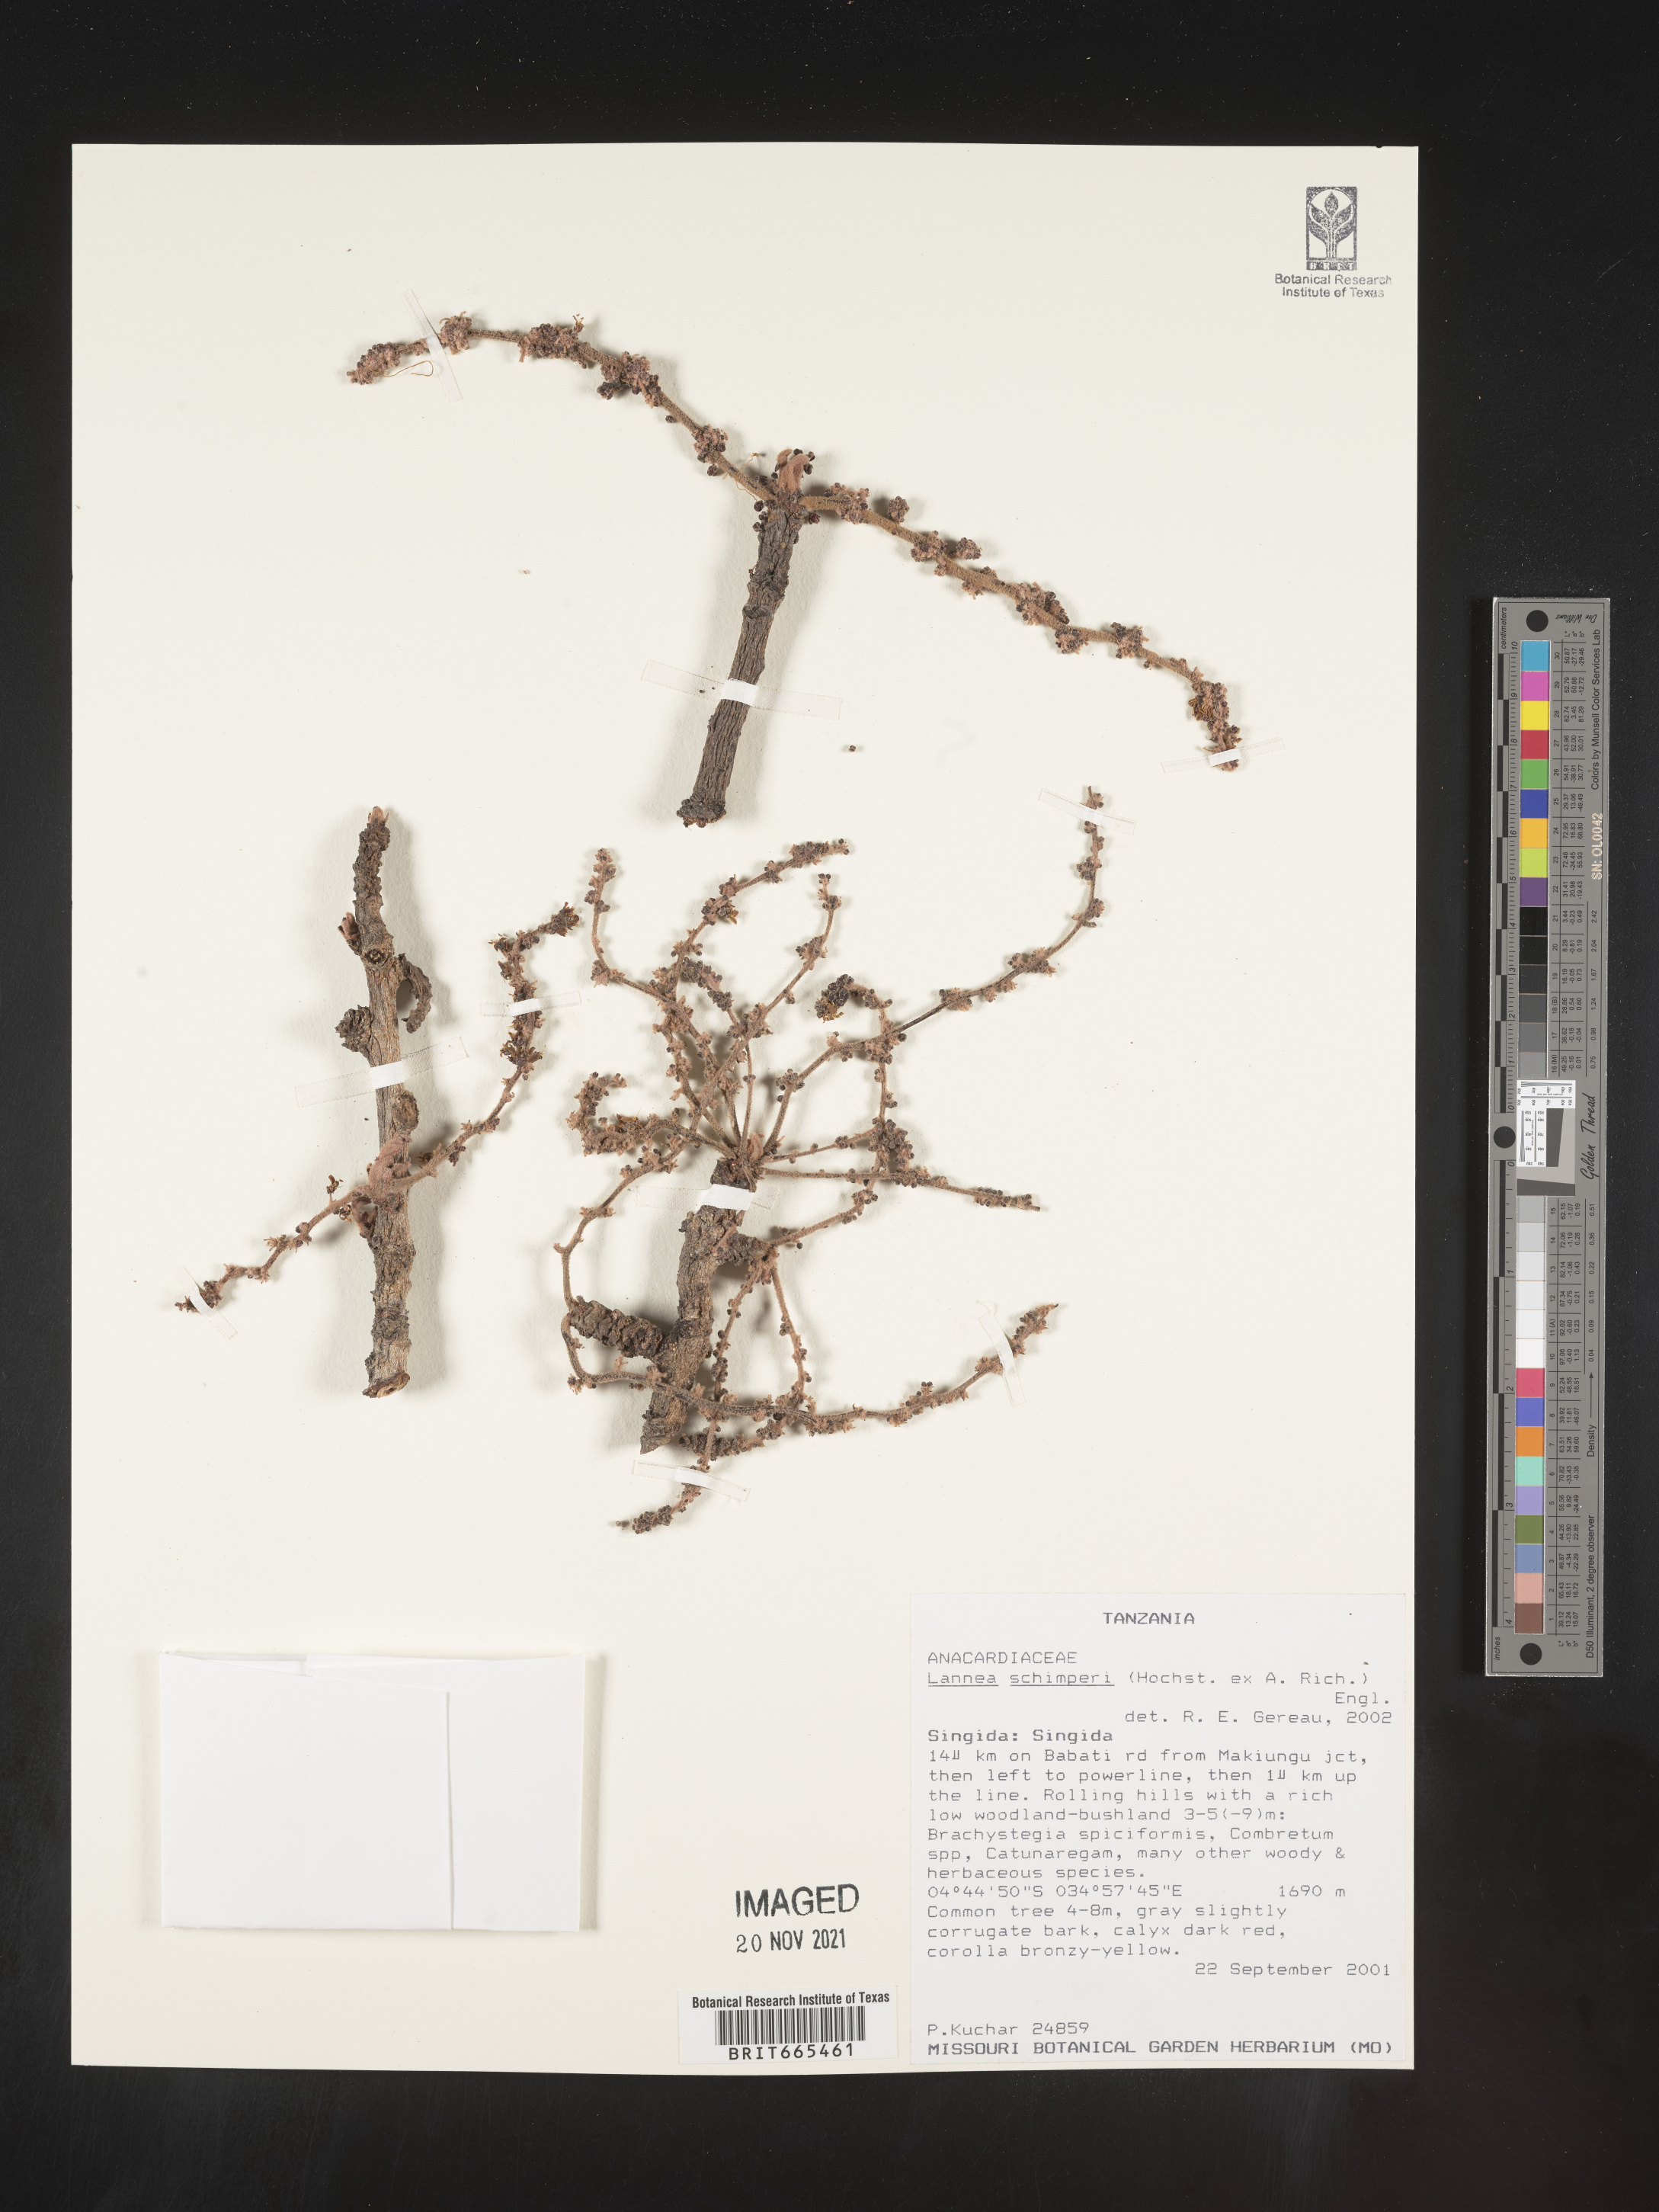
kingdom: Plantae
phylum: Tracheophyta
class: Magnoliopsida
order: Sapindales
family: Anacardiaceae
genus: Lannea
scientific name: Lannea
